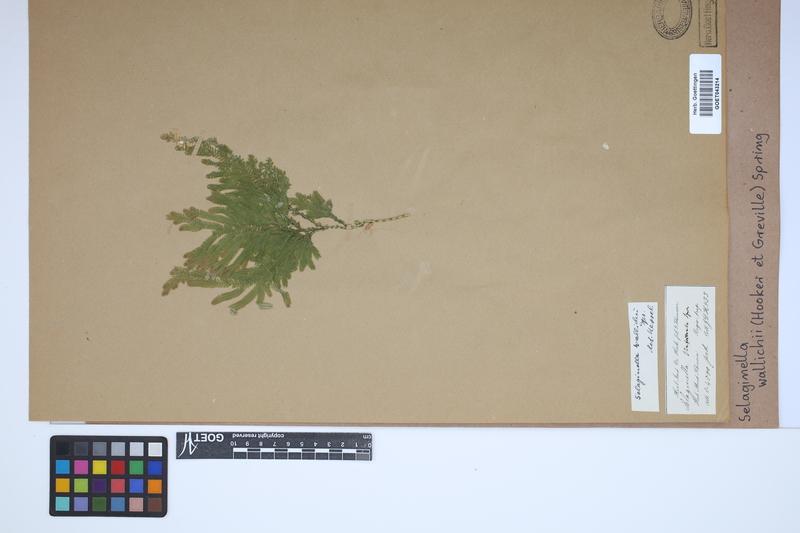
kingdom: Plantae
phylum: Tracheophyta
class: Lycopodiopsida
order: Selaginellales
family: Selaginellaceae
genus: Selaginella
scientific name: Selaginella wallichii
